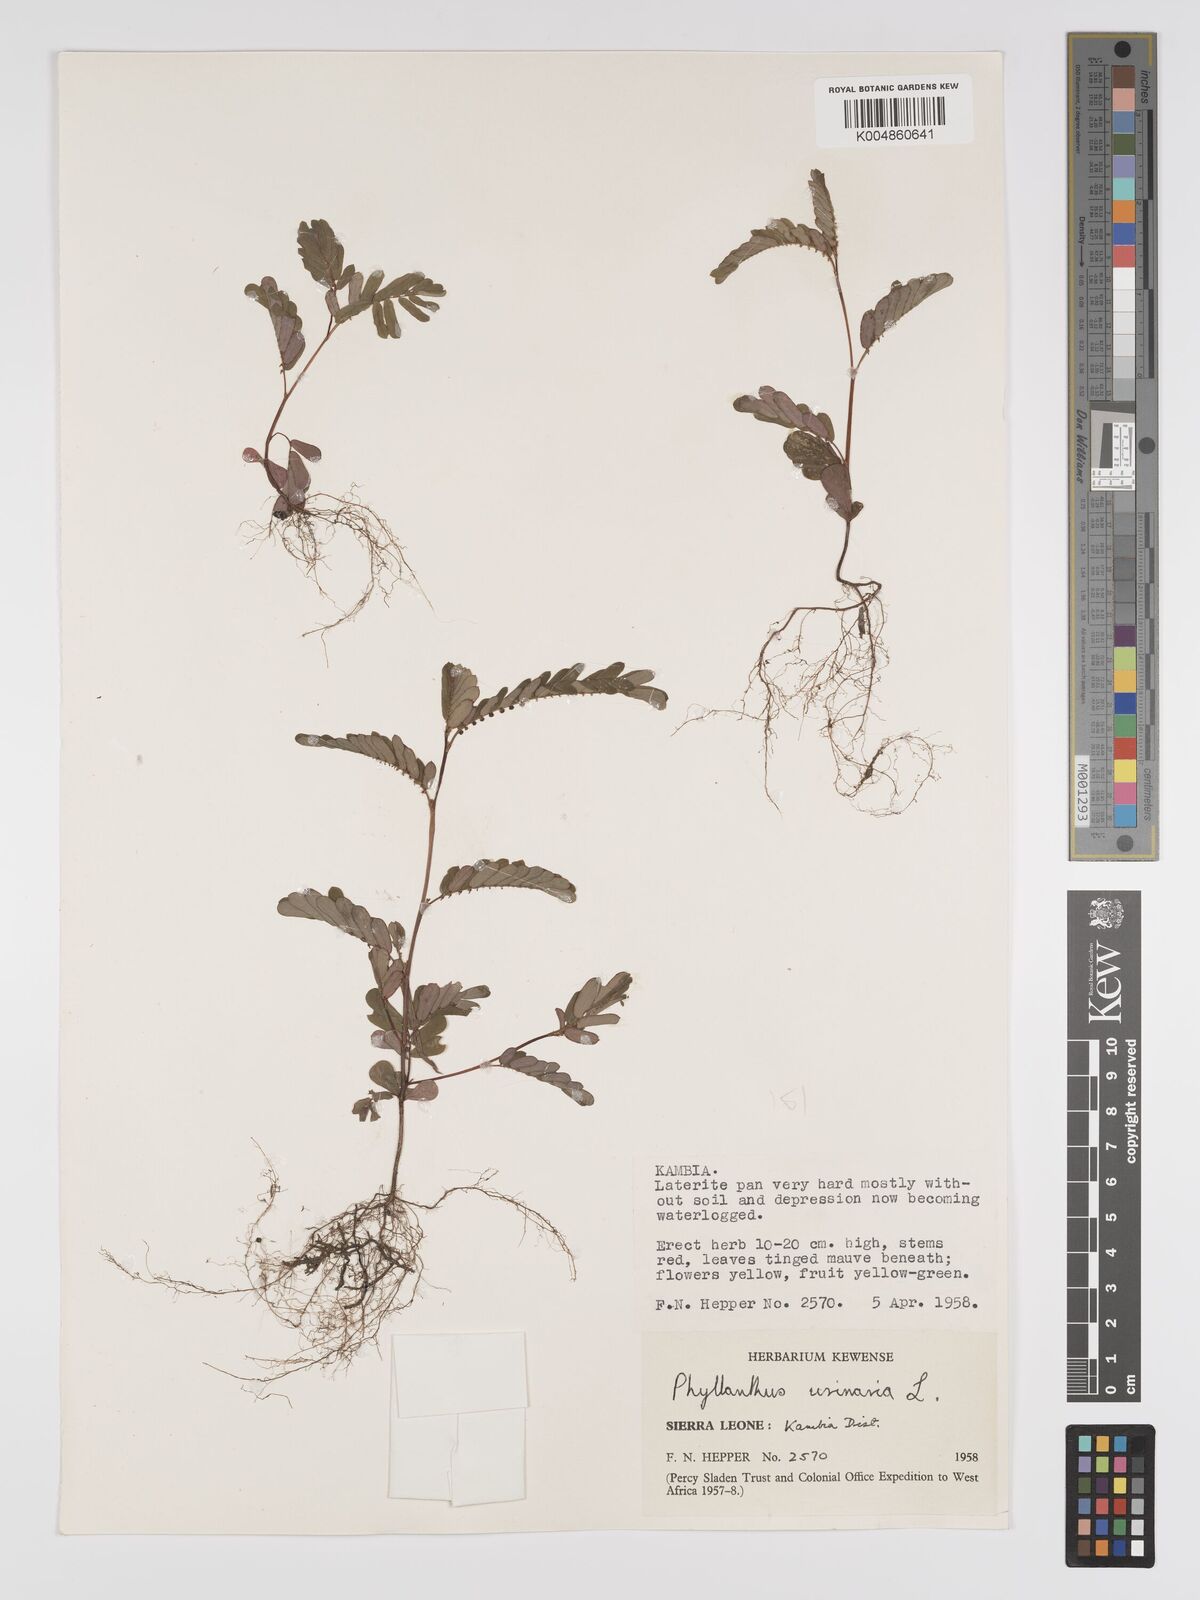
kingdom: Plantae
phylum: Tracheophyta
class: Magnoliopsida
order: Malpighiales
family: Phyllanthaceae
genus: Phyllanthus
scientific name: Phyllanthus urinaria
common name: Chamber bitter
